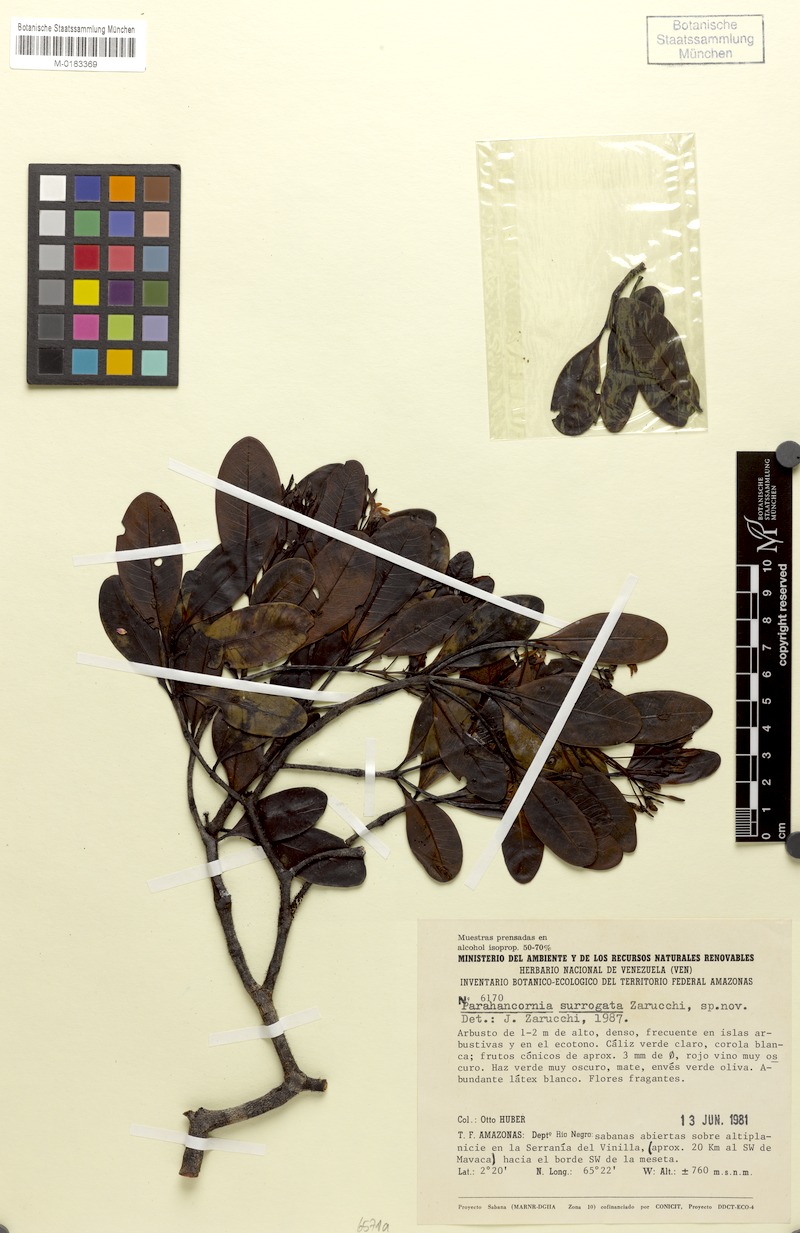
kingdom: Plantae
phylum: Tracheophyta
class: Magnoliopsida
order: Gentianales
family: Apocynaceae
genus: Parahancornia
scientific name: Parahancornia surrogata
